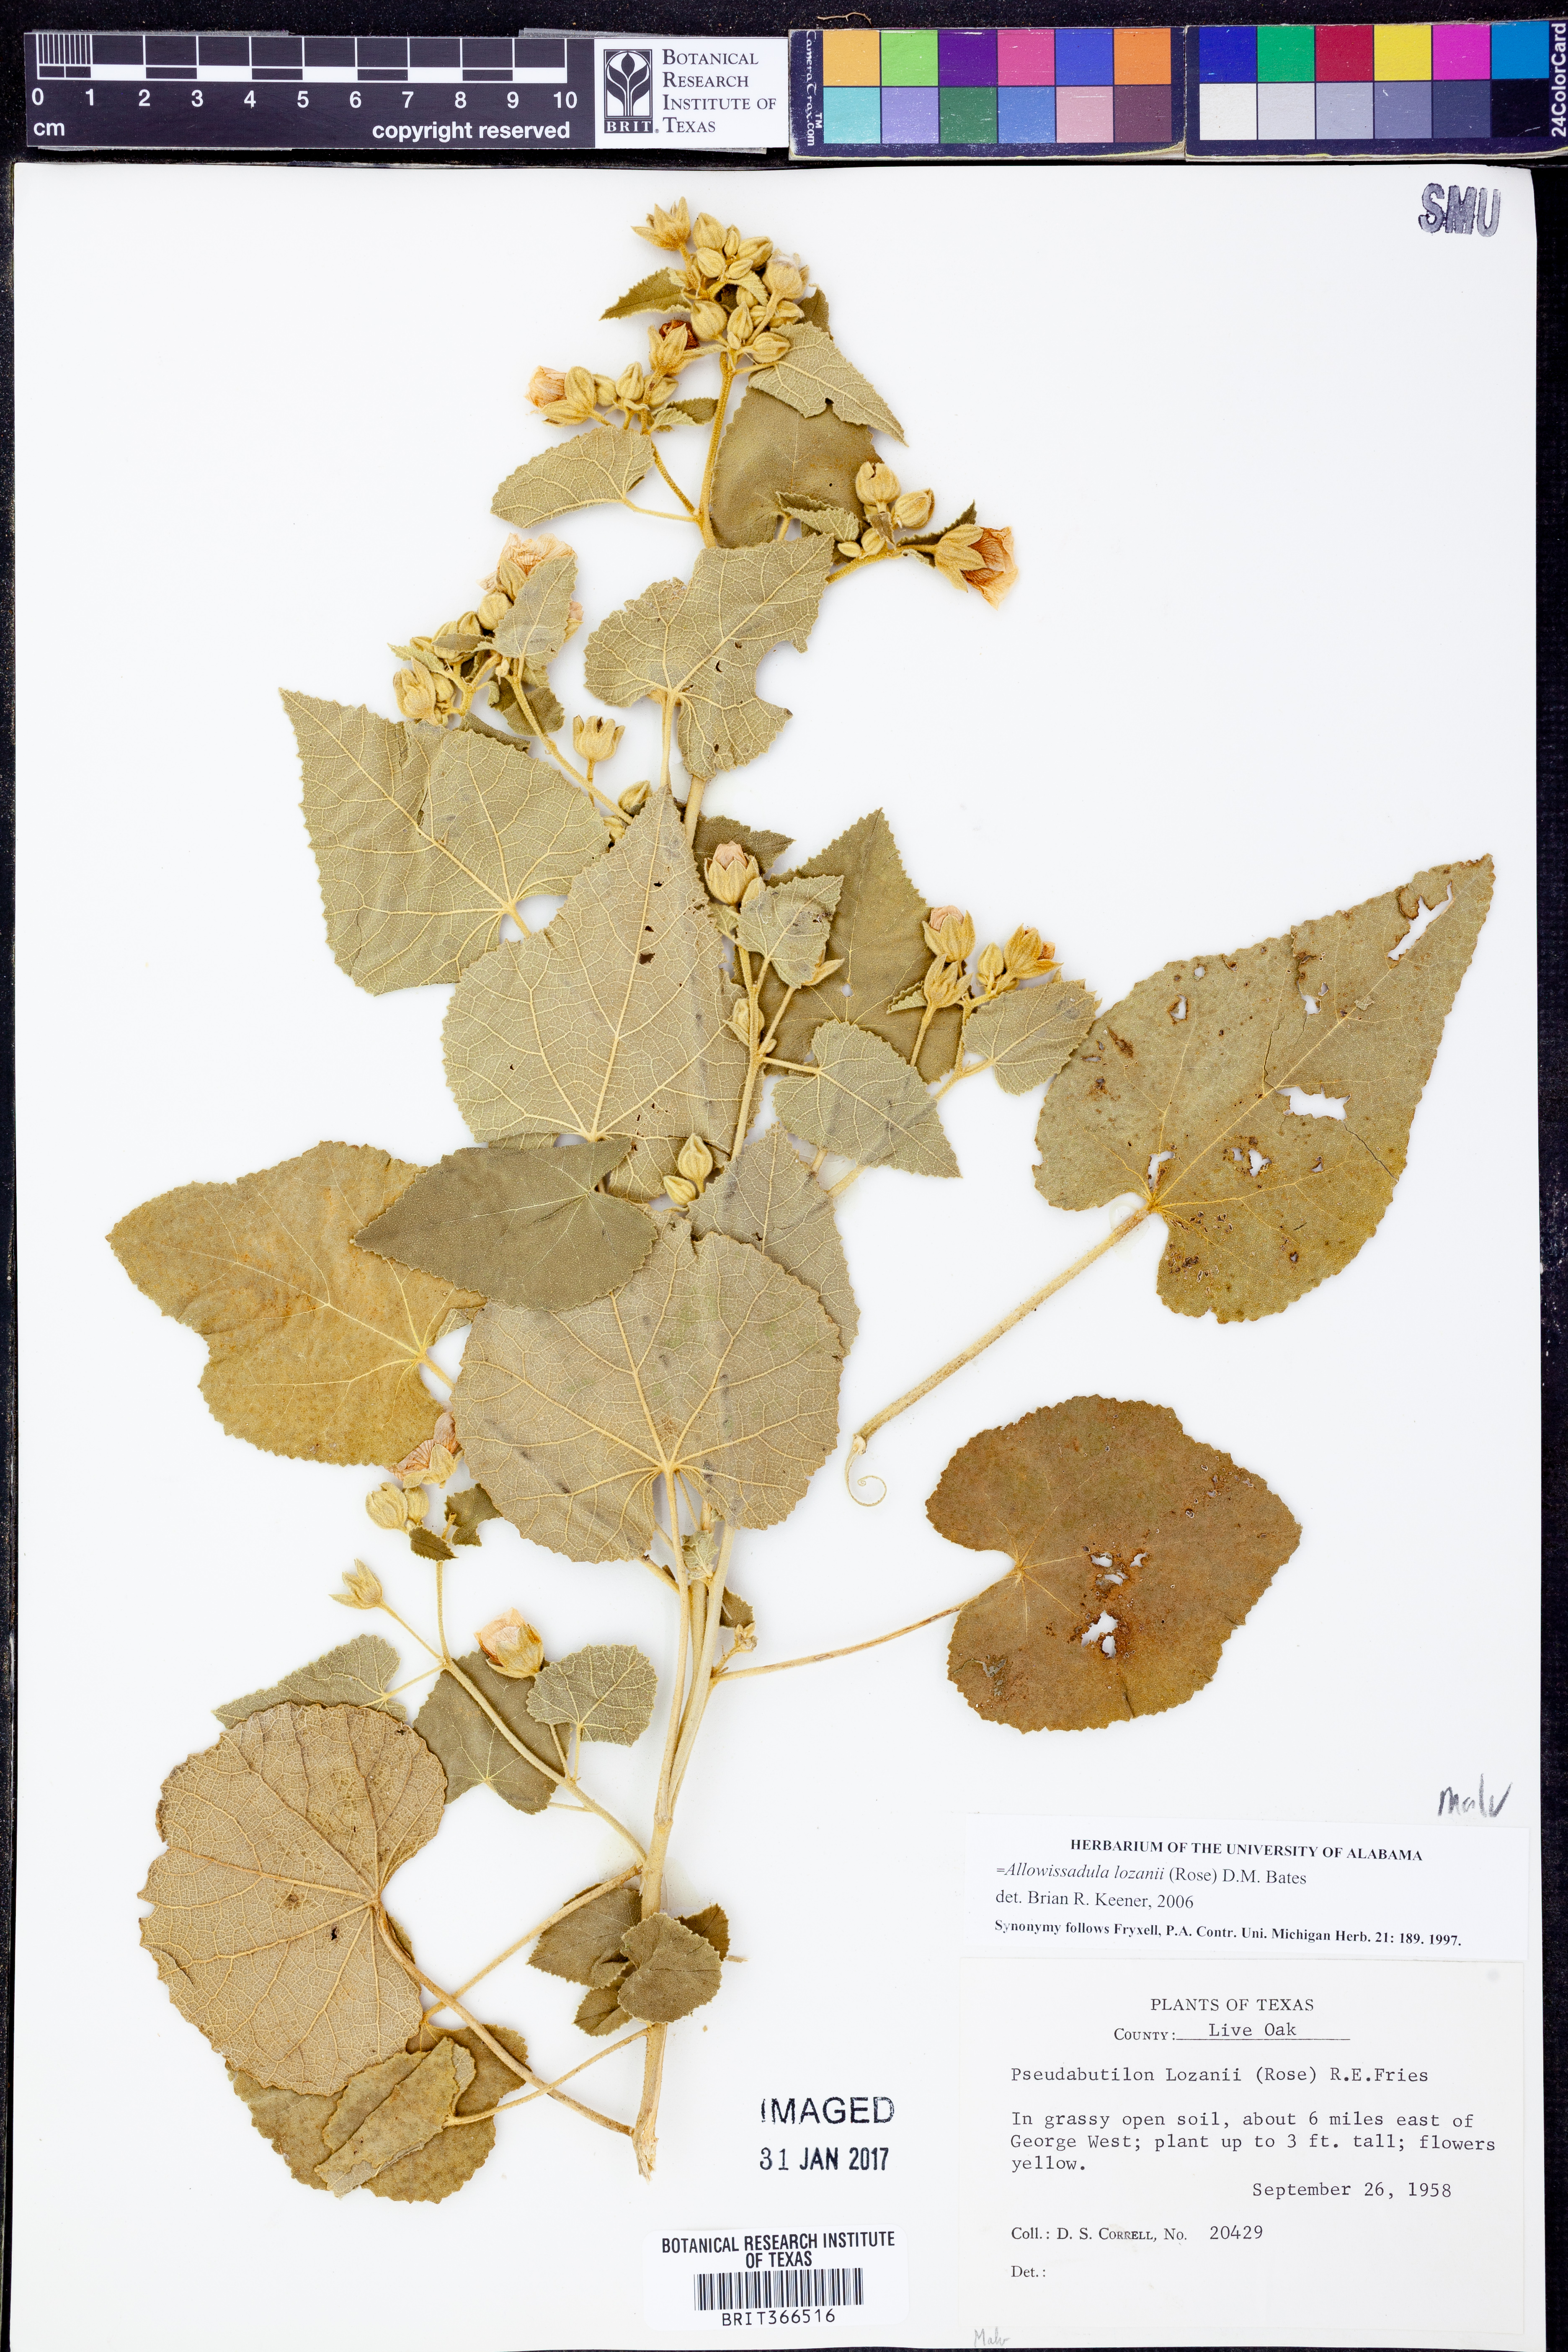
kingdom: Plantae
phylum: Tracheophyta
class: Magnoliopsida
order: Malvales
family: Malvaceae
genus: Allowissadula
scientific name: Allowissadula lozanii
